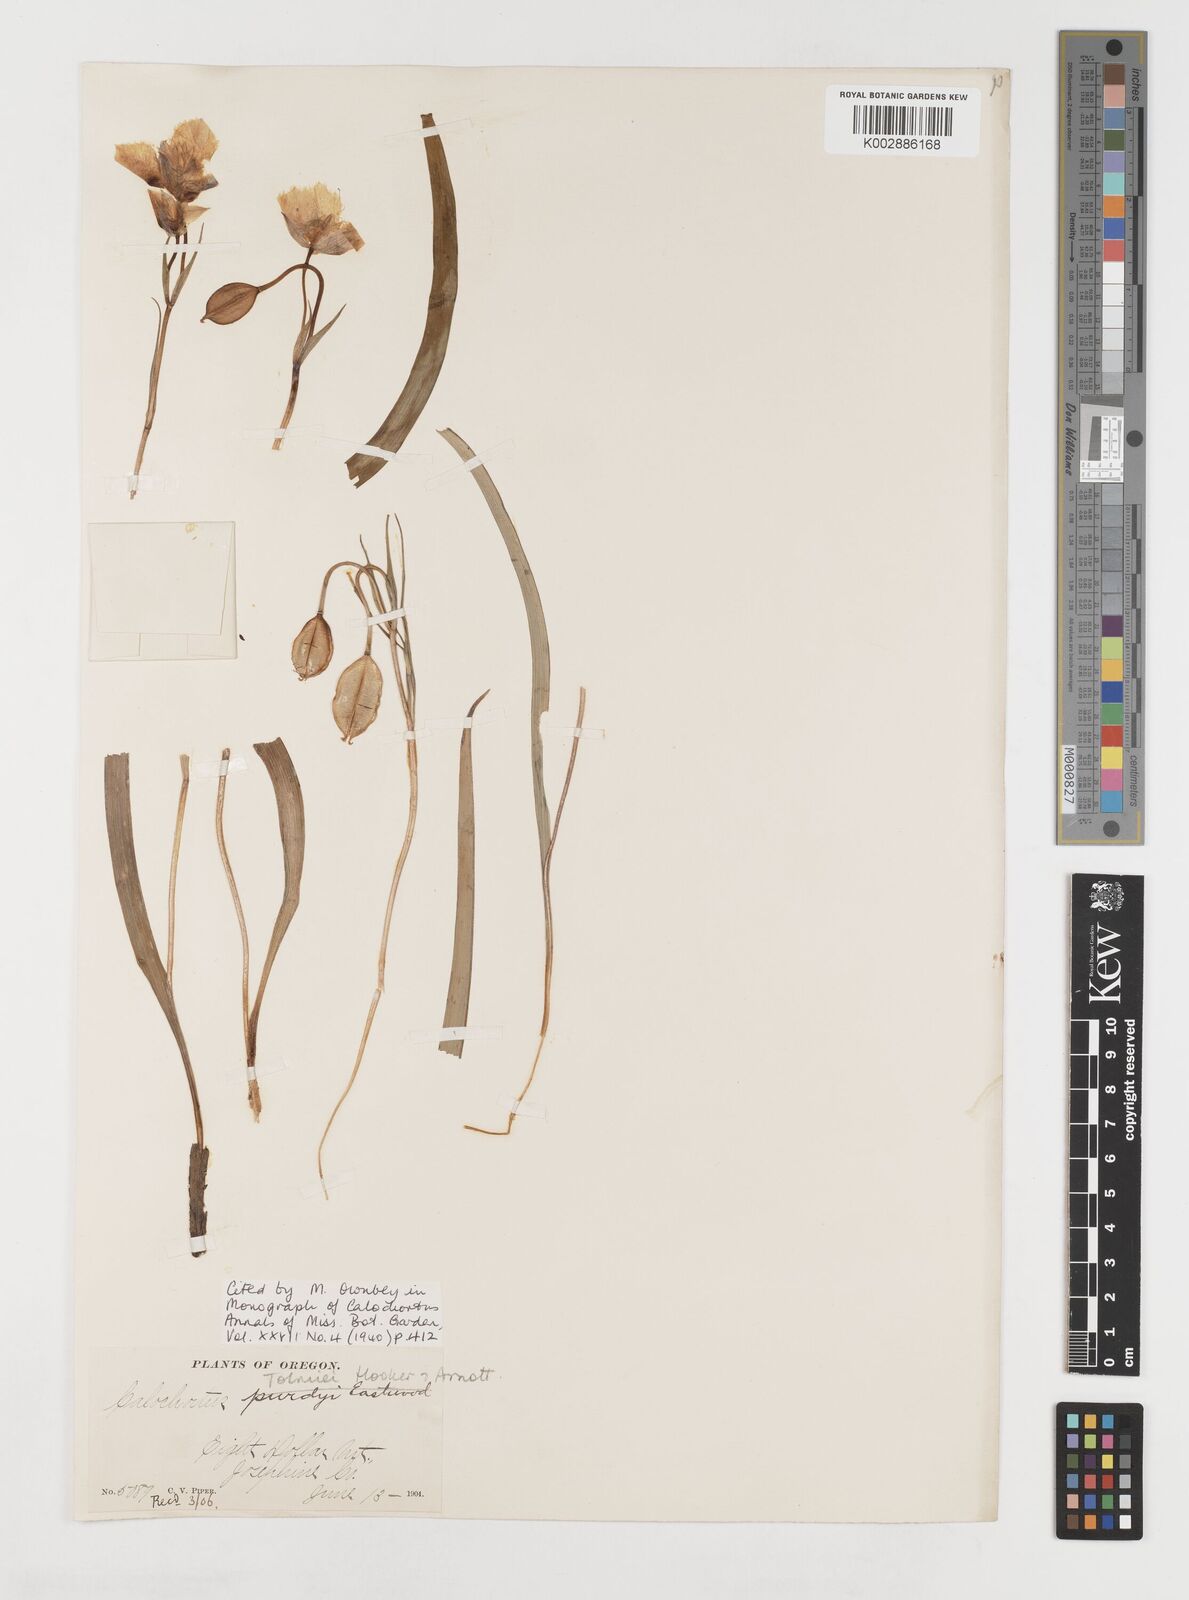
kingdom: Plantae
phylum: Tracheophyta
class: Liliopsida
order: Liliales
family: Liliaceae
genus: Calochortus
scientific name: Calochortus tolmiei
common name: Pussy-ears
